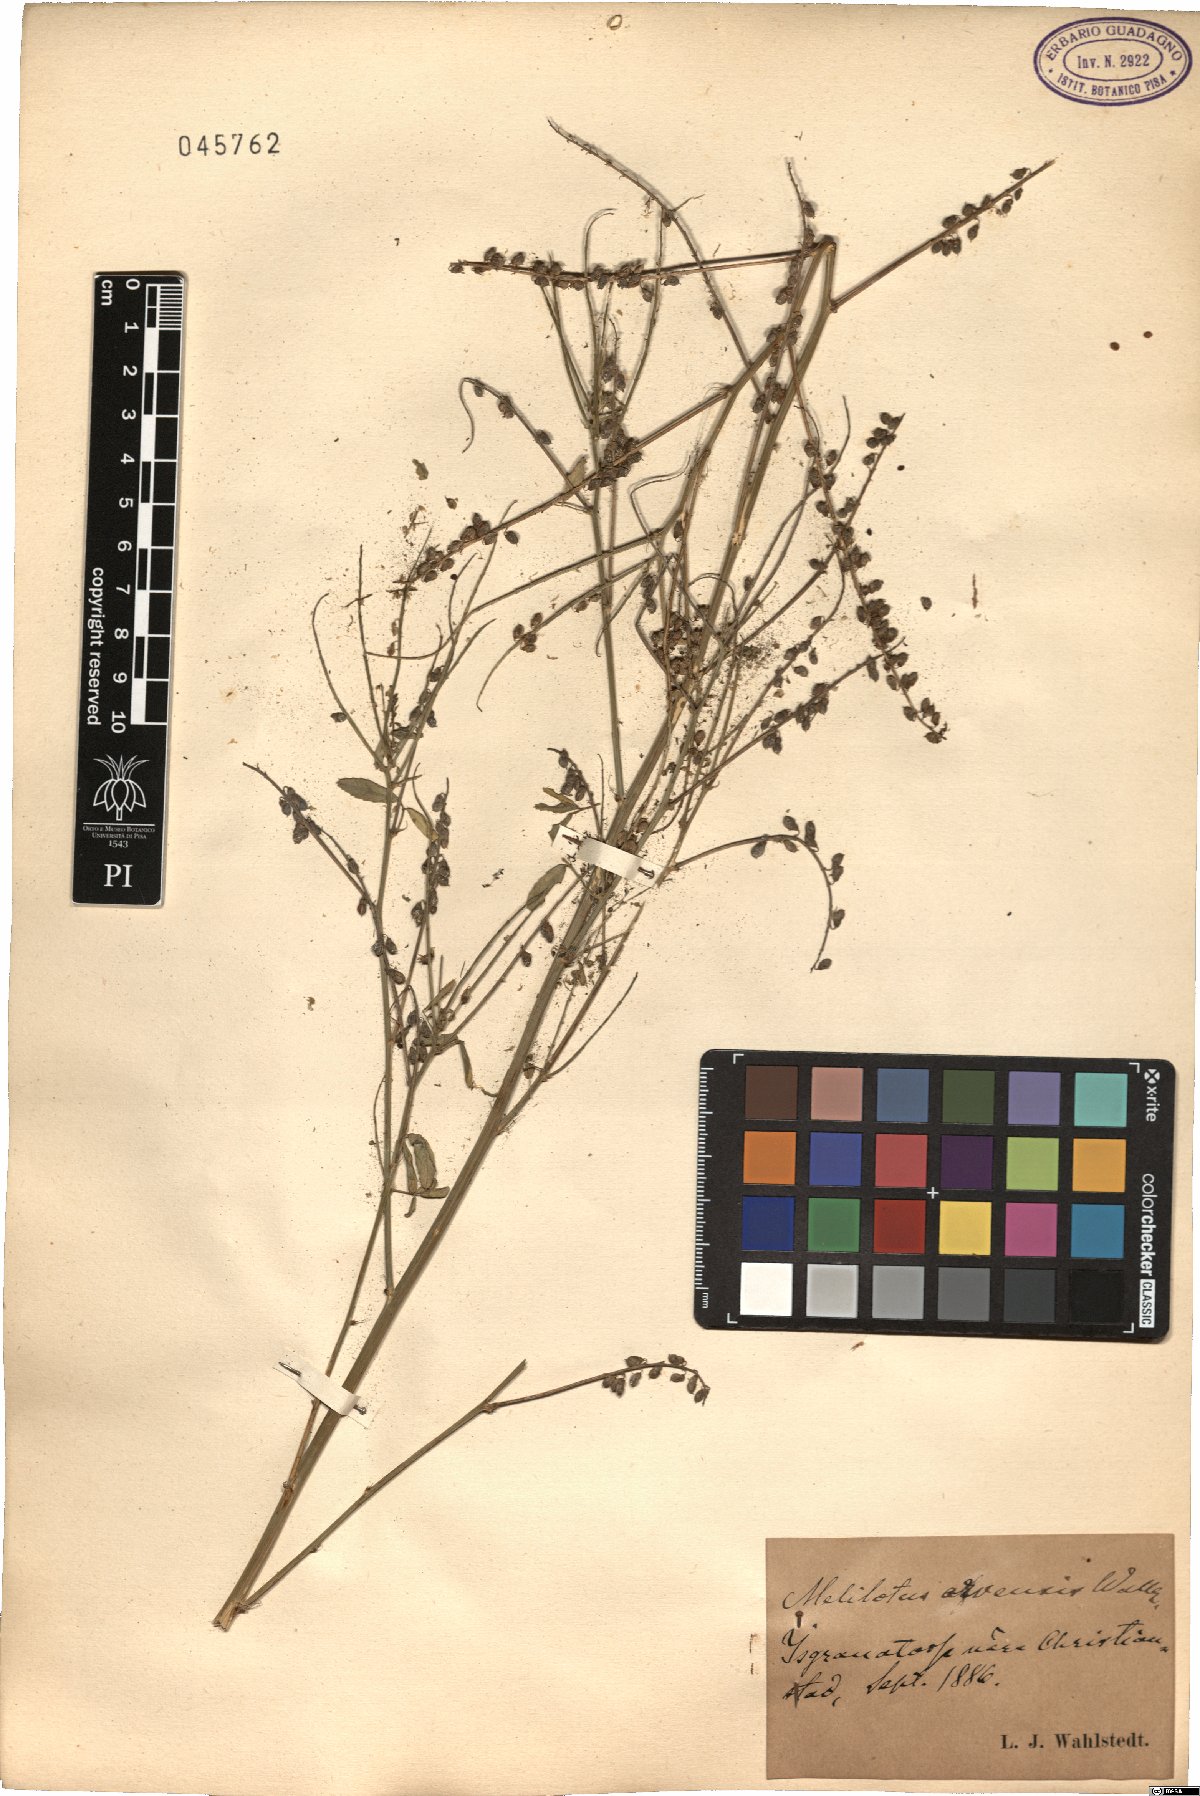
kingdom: Plantae
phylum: Tracheophyta
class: Magnoliopsida
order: Fabales
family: Fabaceae
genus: Melilotus
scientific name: Melilotus officinalis
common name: Sweetclover
